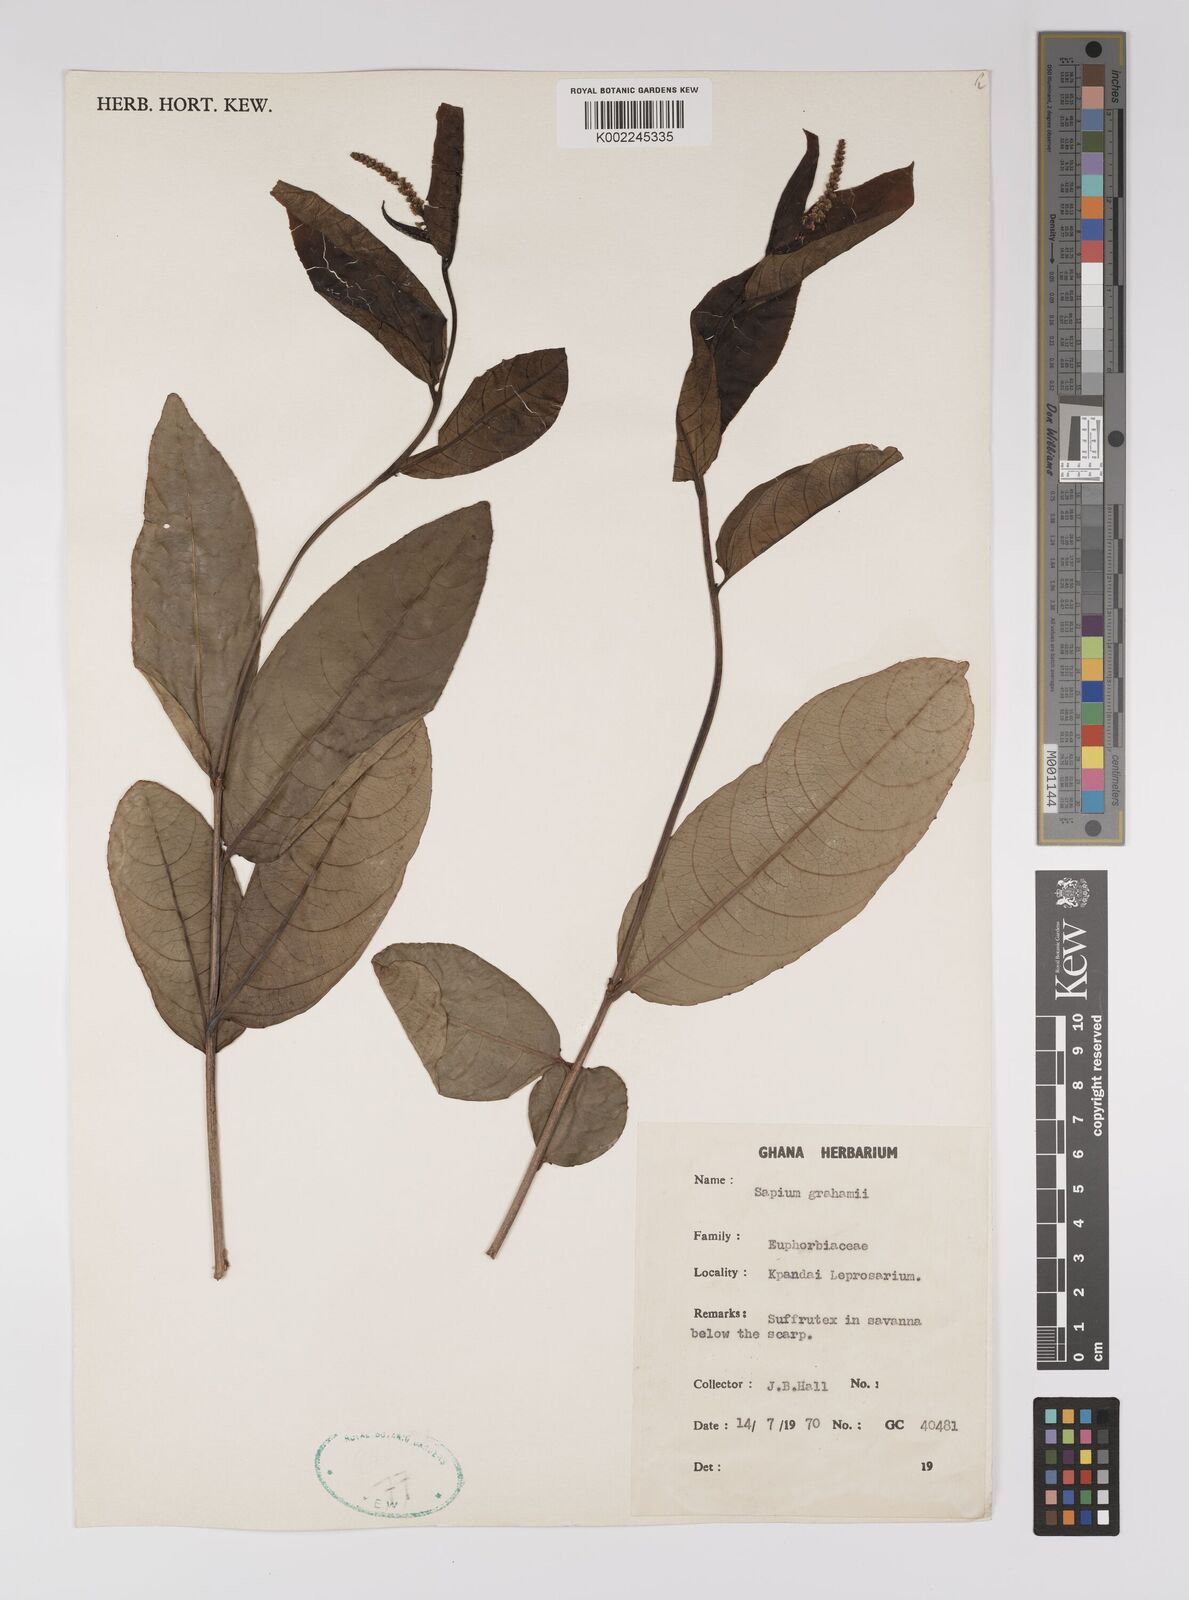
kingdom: Plantae
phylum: Tracheophyta
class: Magnoliopsida
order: Malpighiales
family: Euphorbiaceae
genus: Excoecaria
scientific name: Excoecaria grahamii
